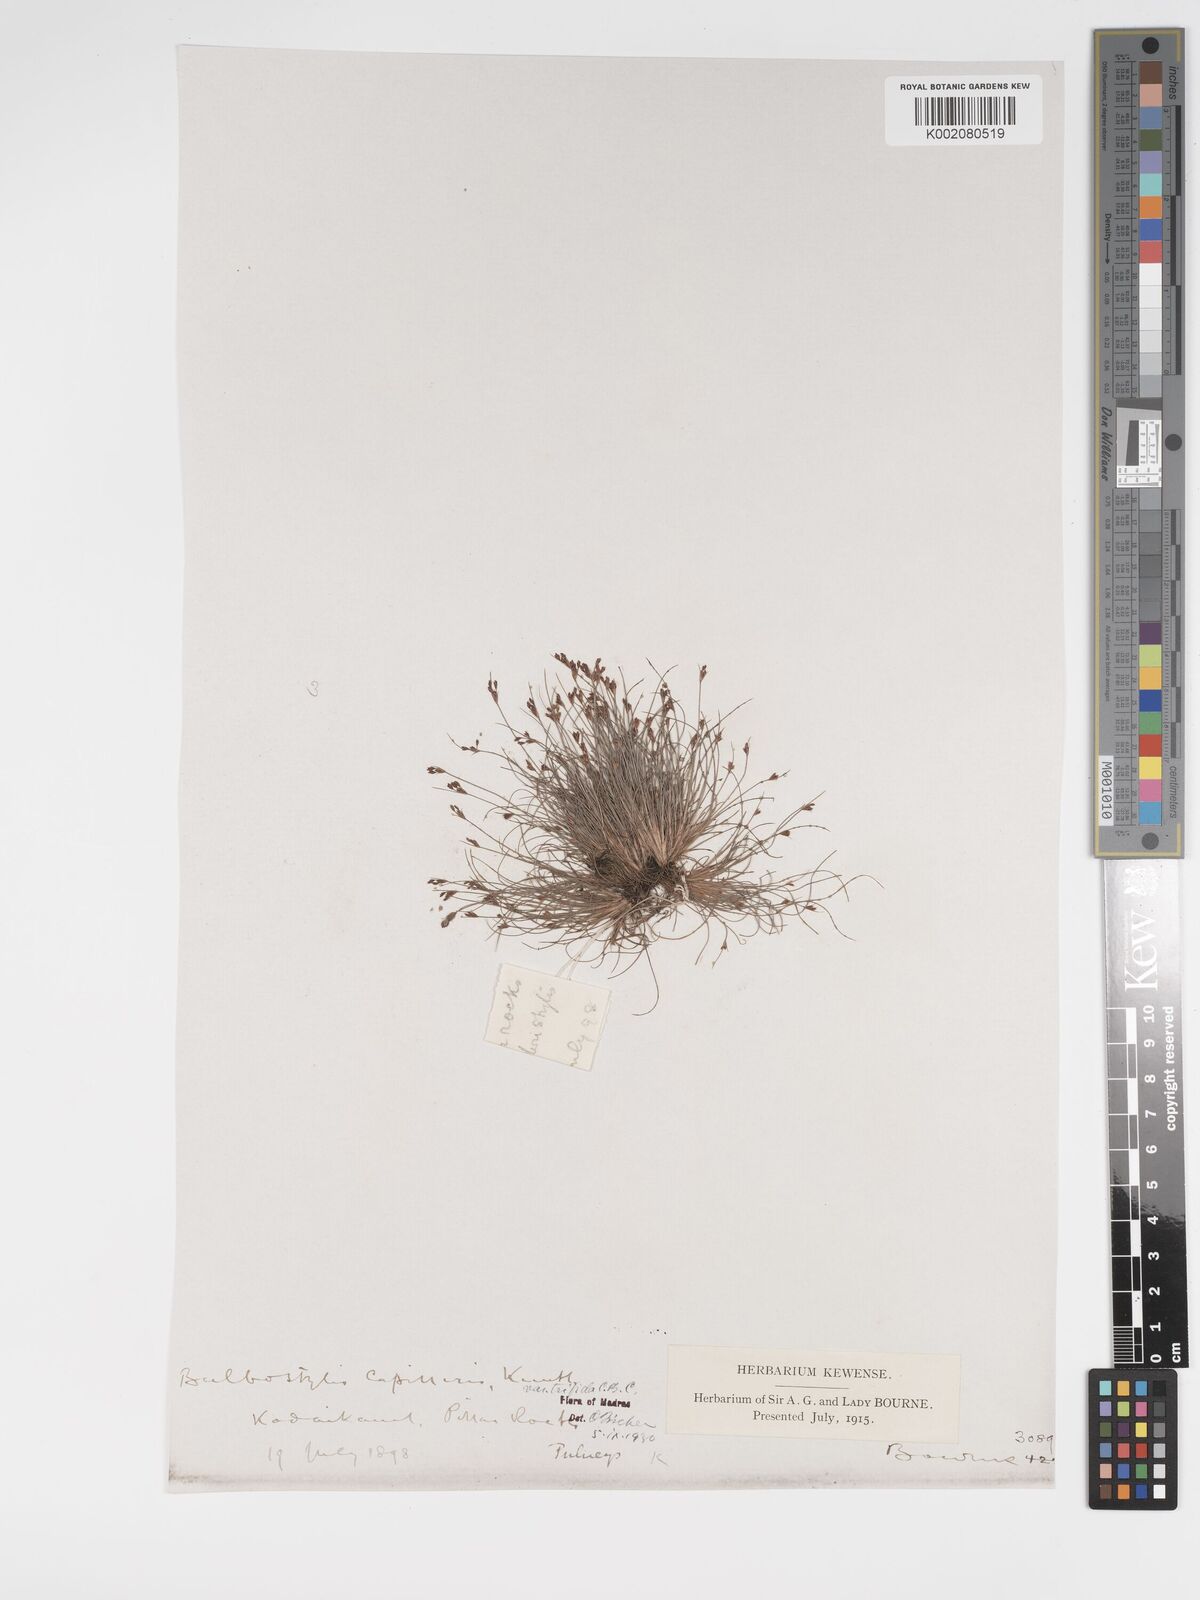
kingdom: Plantae
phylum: Tracheophyta
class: Liliopsida
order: Poales
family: Cyperaceae
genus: Bulbostylis
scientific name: Bulbostylis capillaris
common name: Densetuft hairsedge
